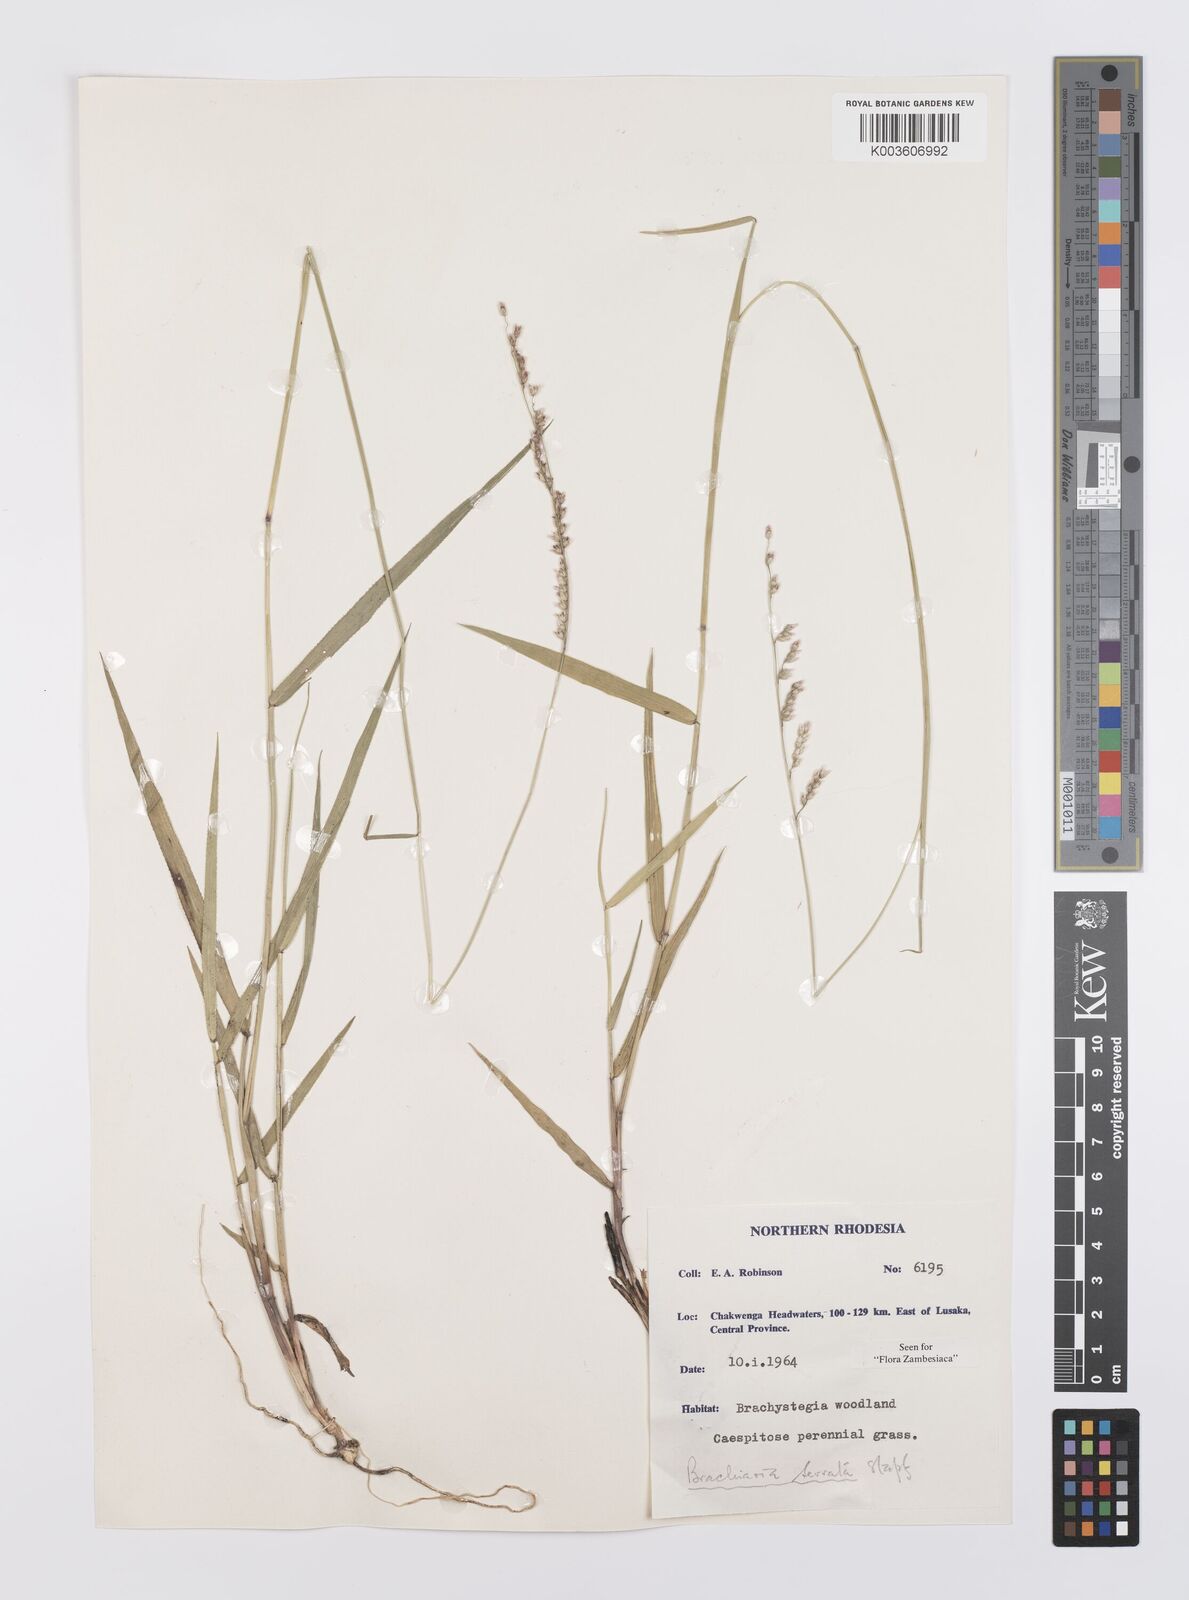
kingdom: Plantae
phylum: Tracheophyta
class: Liliopsida
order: Poales
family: Poaceae
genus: Urochloa
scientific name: Urochloa serrata
